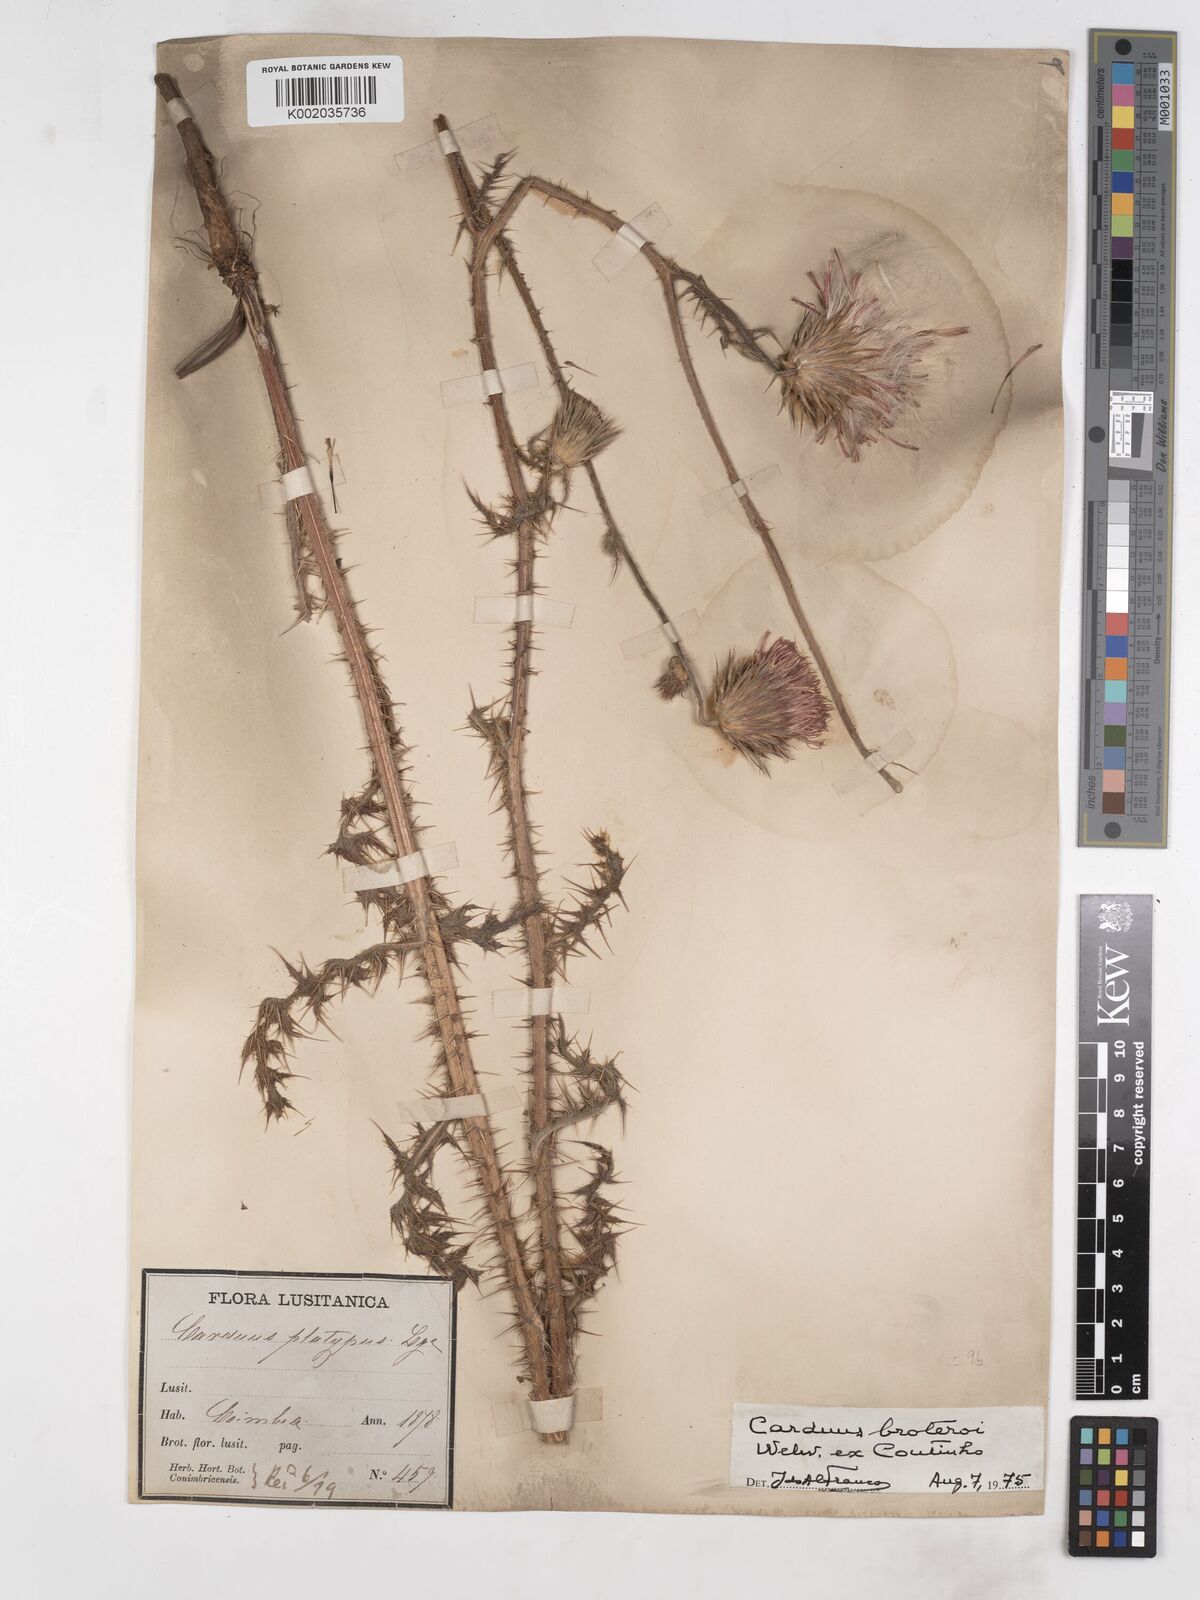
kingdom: Plantae
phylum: Tracheophyta
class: Magnoliopsida
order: Asterales
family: Asteraceae
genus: Carduus
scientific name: Carduus broteroi
